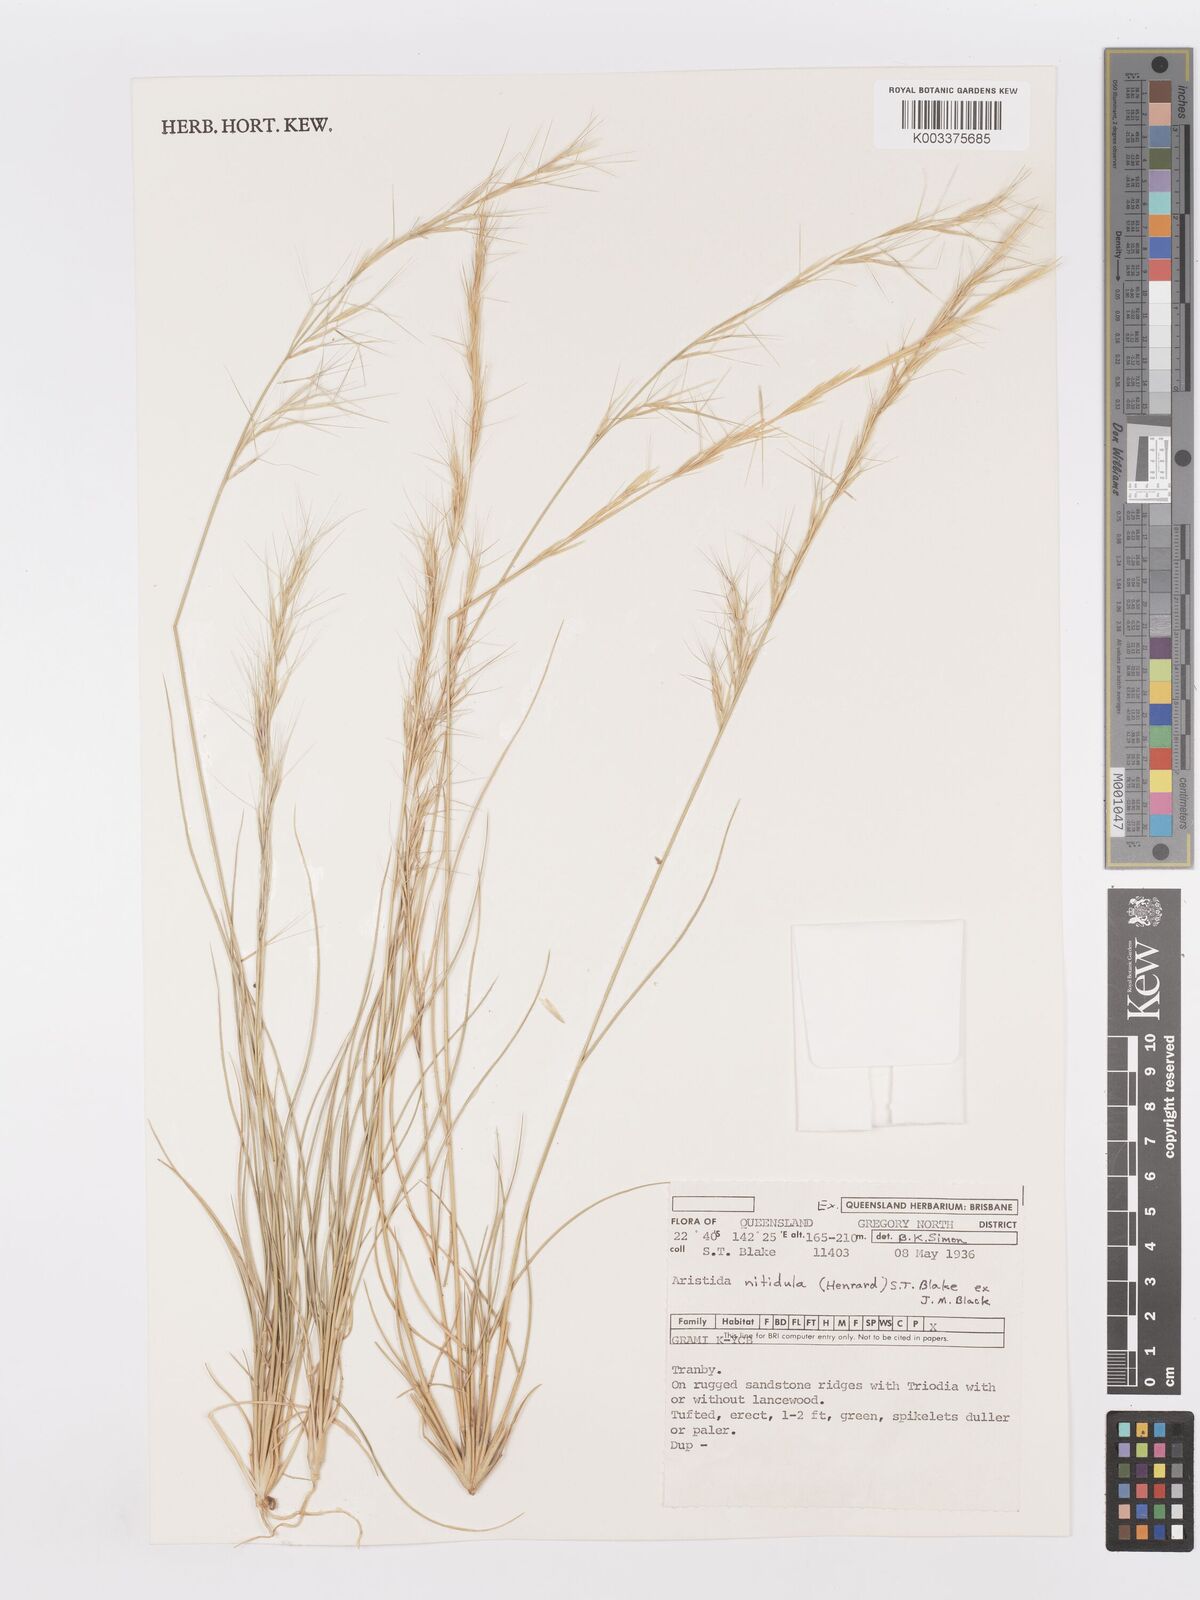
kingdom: Plantae
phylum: Tracheophyta
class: Liliopsida
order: Poales
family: Poaceae
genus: Aristida
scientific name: Aristida nitidula
